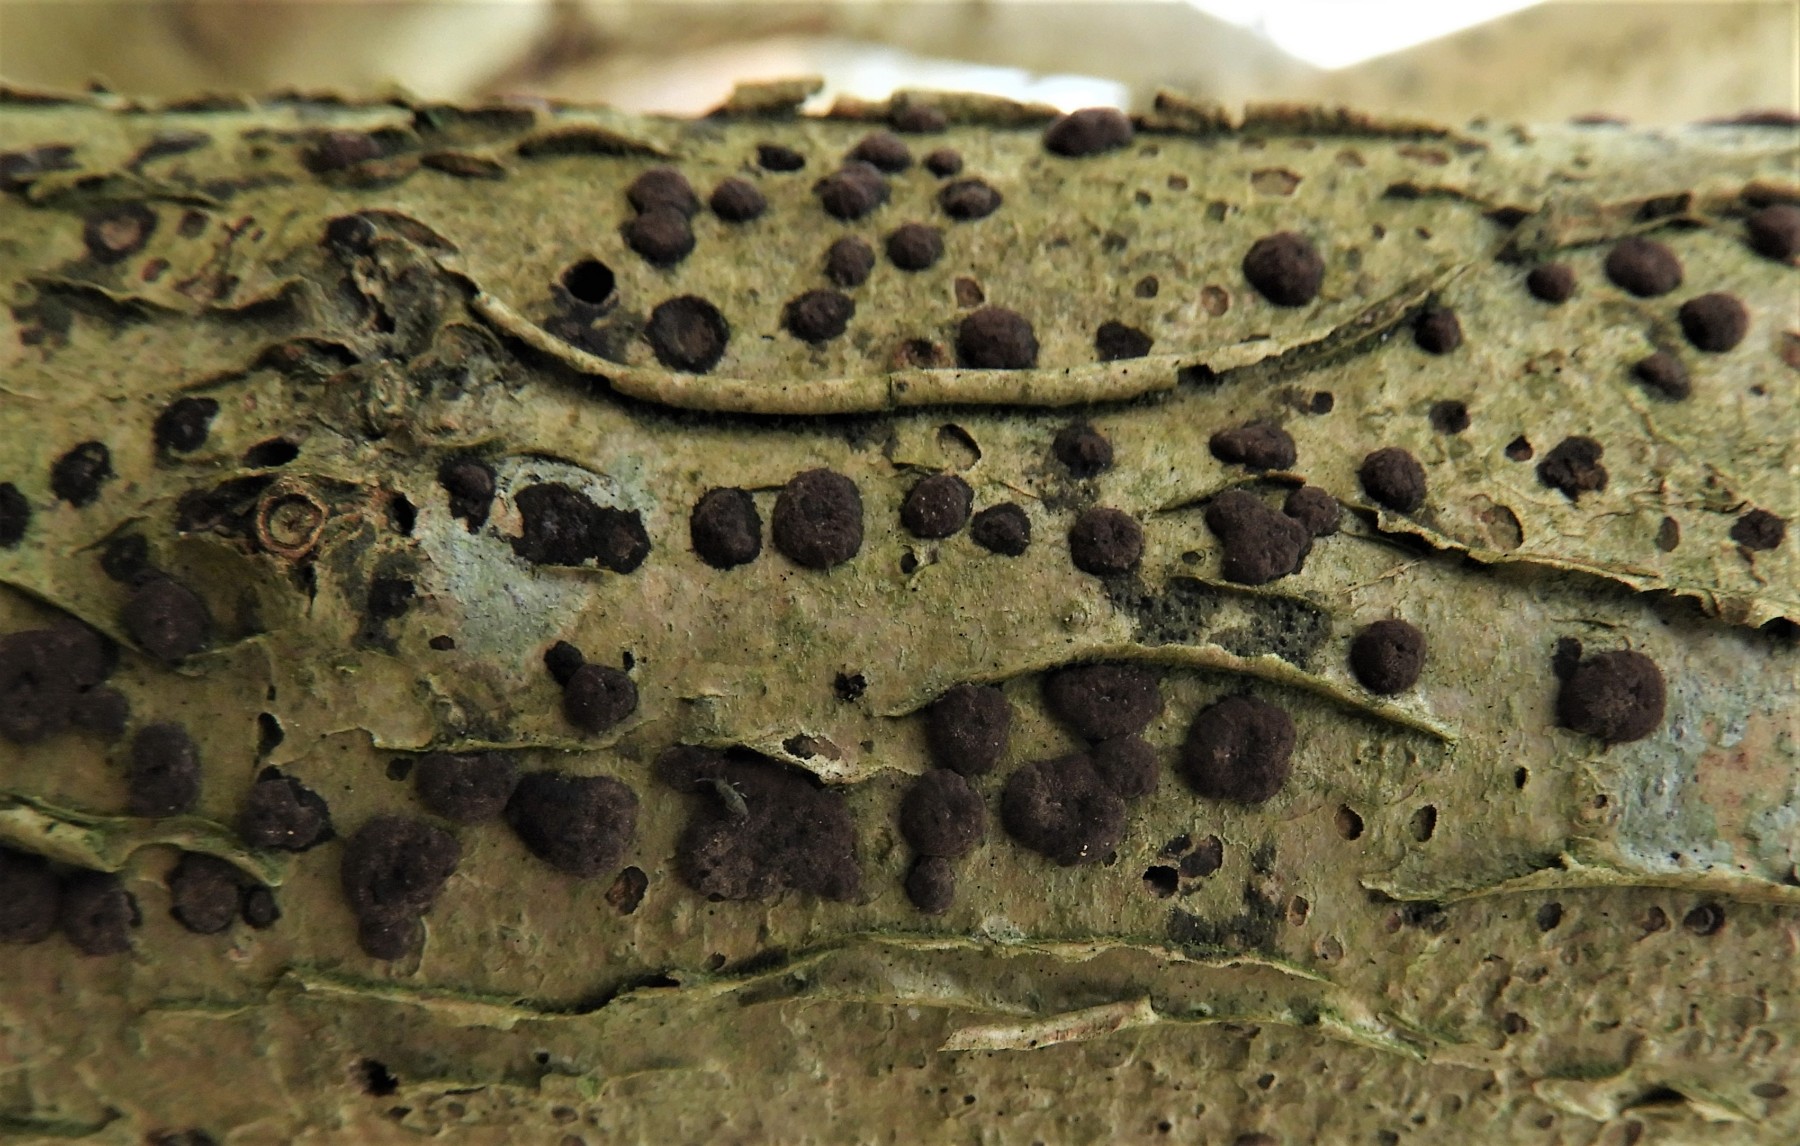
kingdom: Fungi
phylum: Ascomycota
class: Sordariomycetes
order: Xylariales
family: Hypoxylaceae
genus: Hypoxylon
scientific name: Hypoxylon fuscum
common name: kegleformet kulbær
